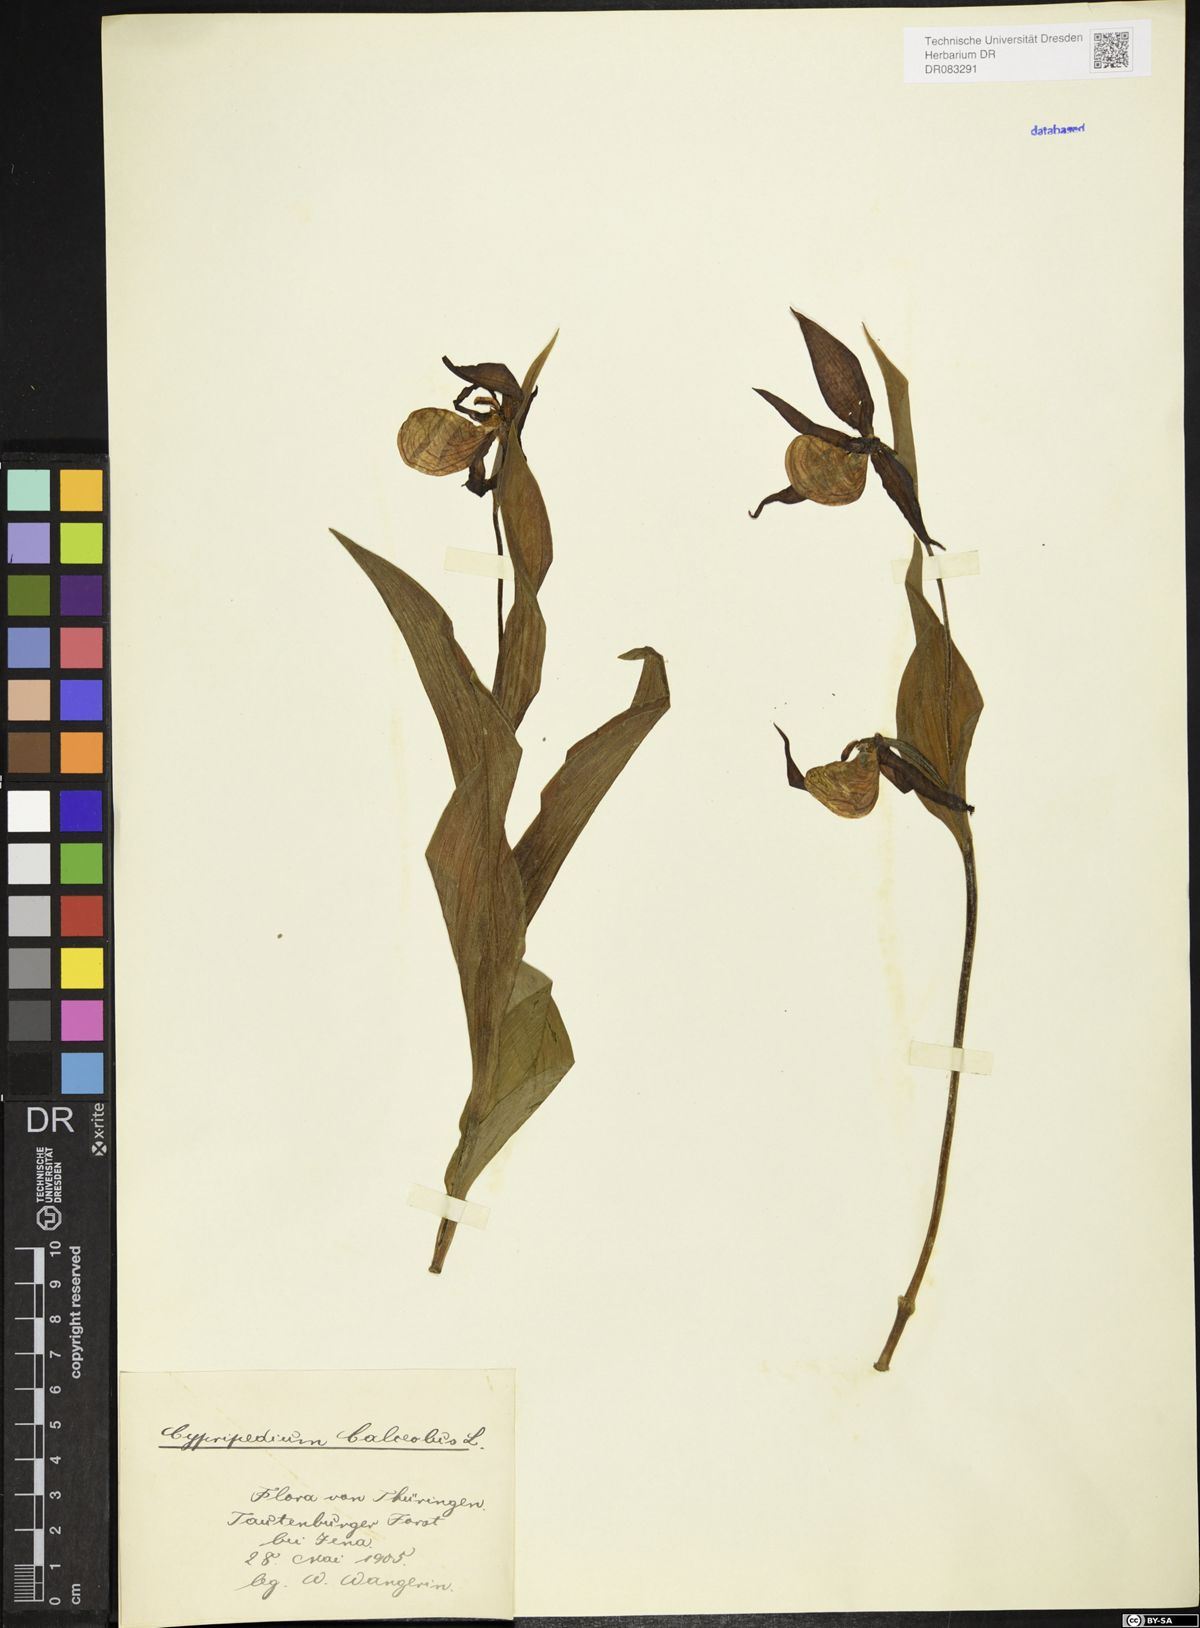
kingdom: Plantae
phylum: Tracheophyta
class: Liliopsida
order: Asparagales
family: Orchidaceae
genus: Cypripedium
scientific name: Cypripedium calceolus
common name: Lady's-slipper
